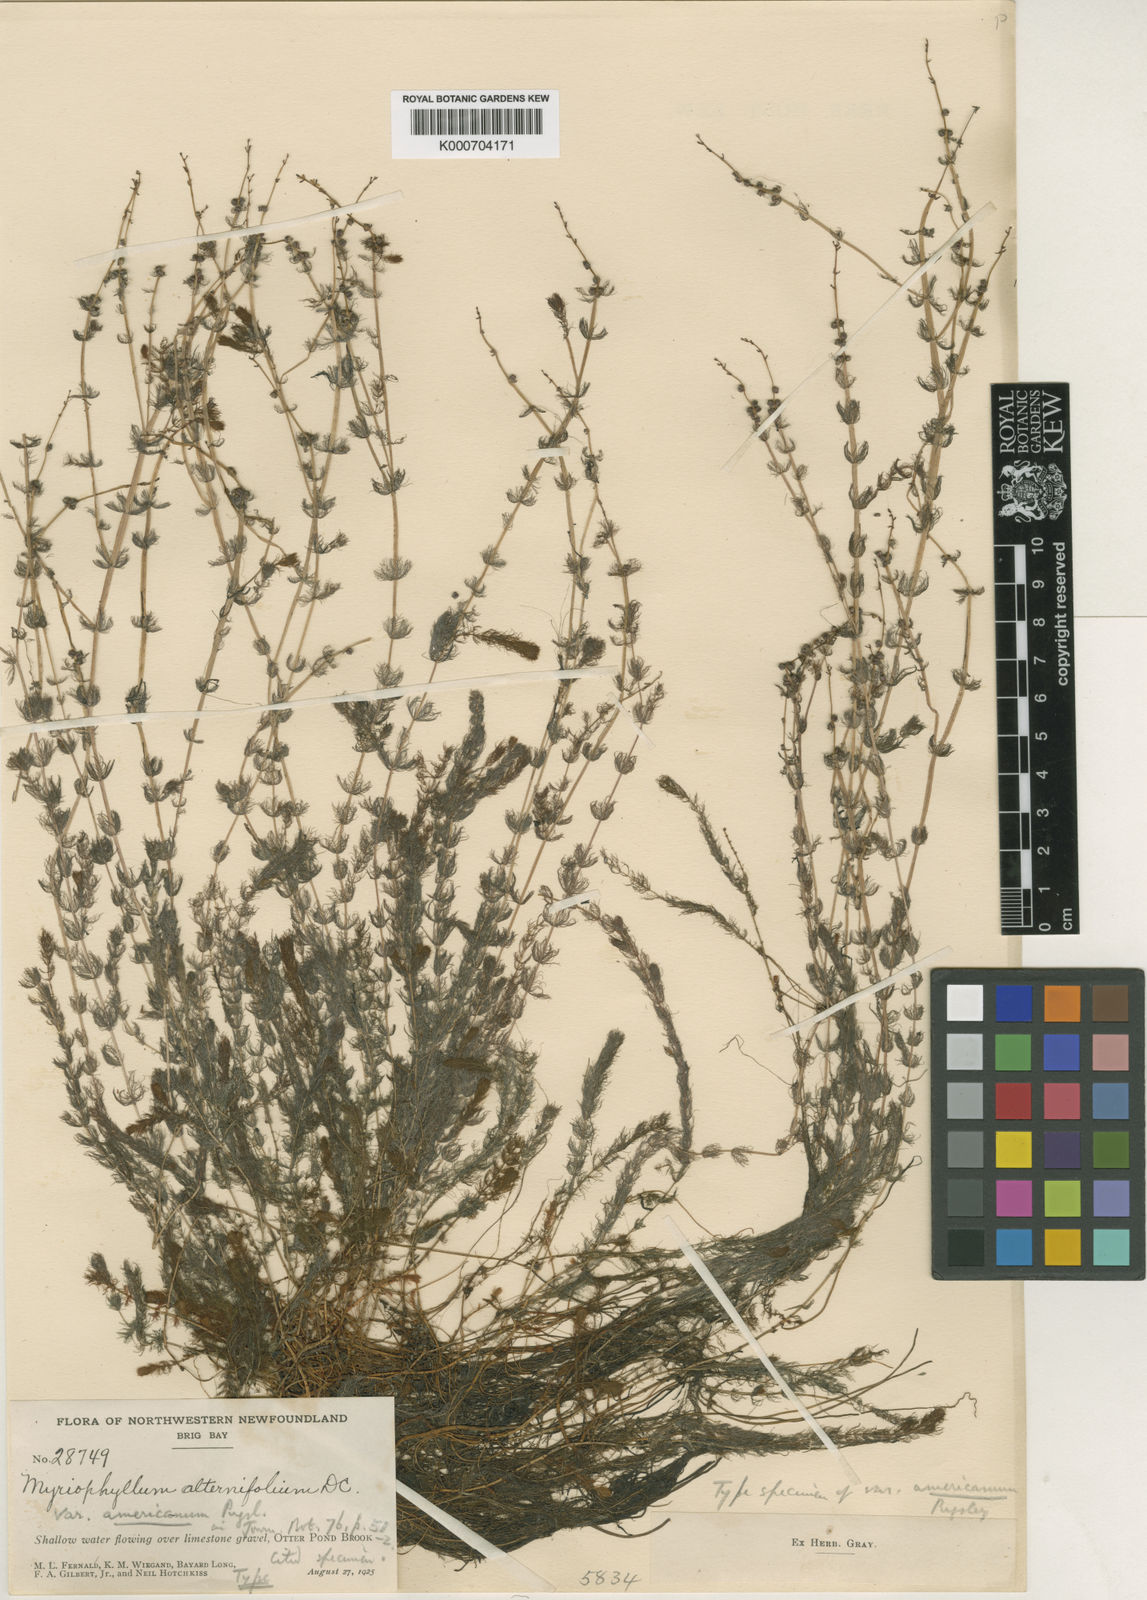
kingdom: Plantae
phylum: Tracheophyta
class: Magnoliopsida
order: Saxifragales
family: Haloragaceae
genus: Myriophyllum
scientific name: Myriophyllum
